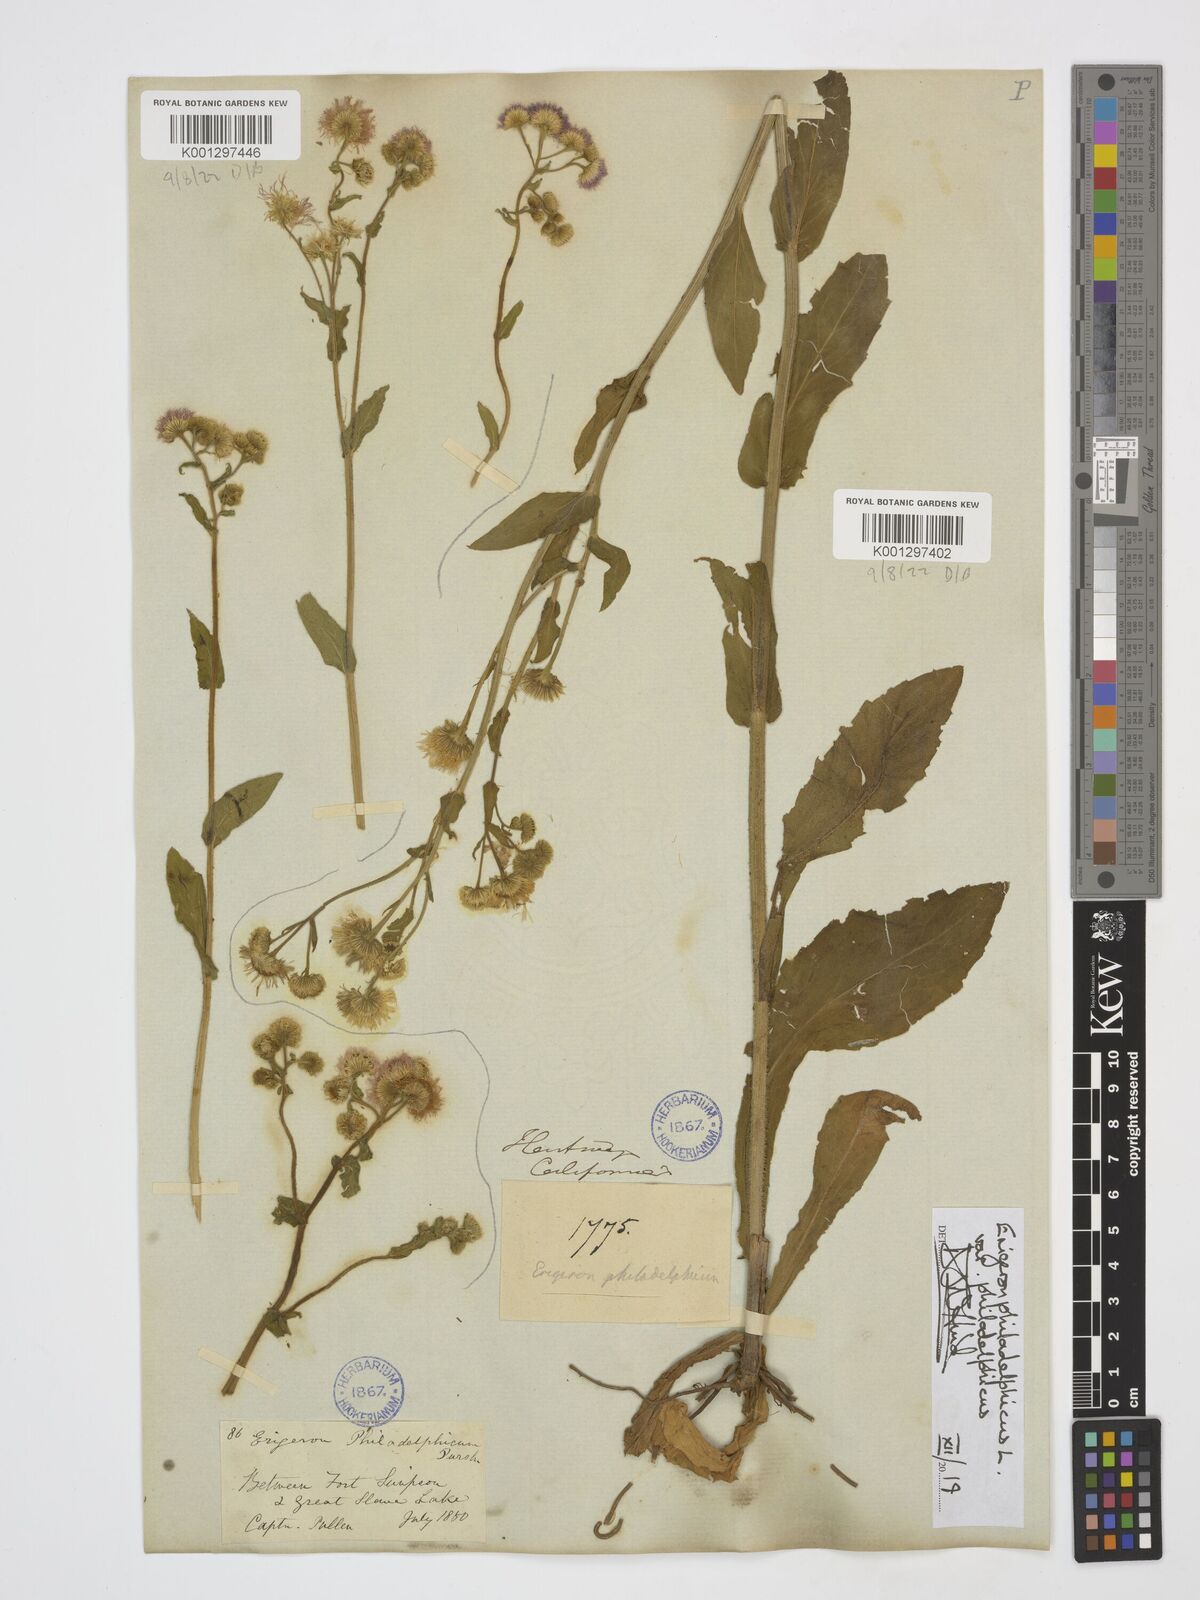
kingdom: Plantae
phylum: Tracheophyta
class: Magnoliopsida
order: Asterales
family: Asteraceae
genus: Erigeron
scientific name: Erigeron philadelphicus
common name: Robin's-plantain
